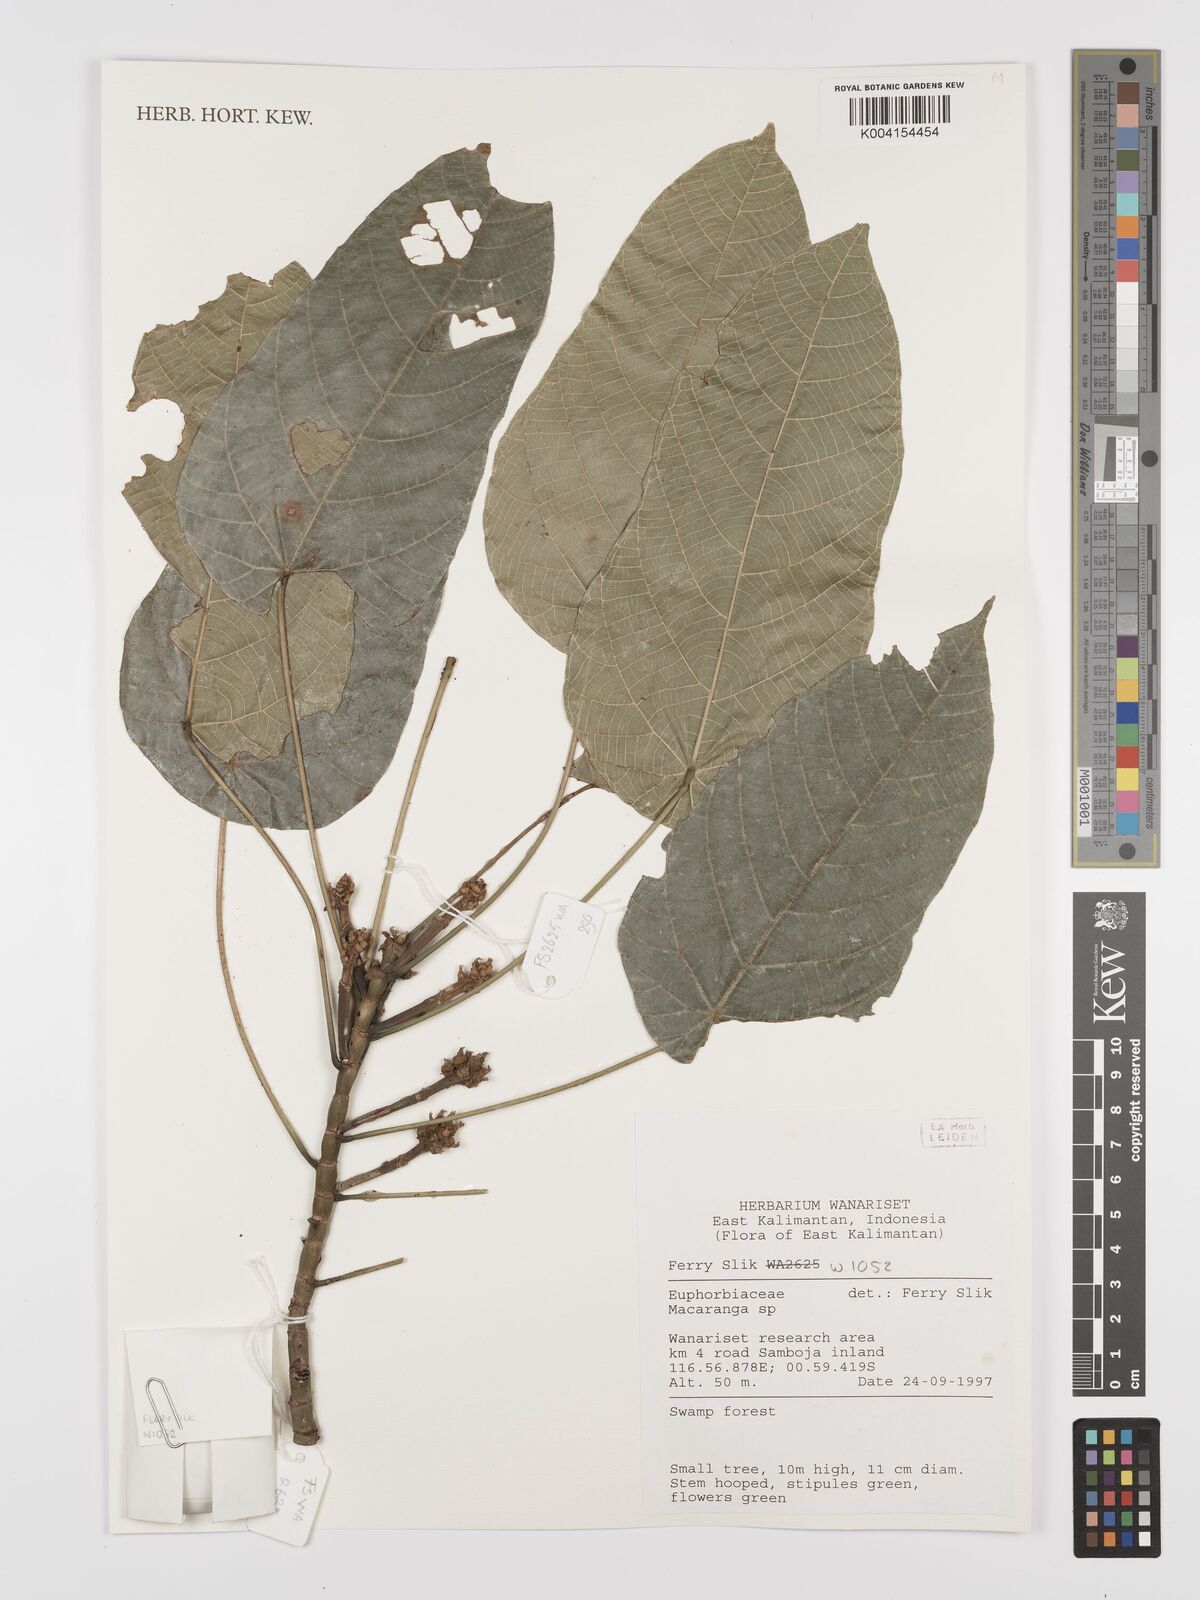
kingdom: Plantae
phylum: Tracheophyta
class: Magnoliopsida
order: Malpighiales
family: Euphorbiaceae
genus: Macaranga
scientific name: Macaranga
